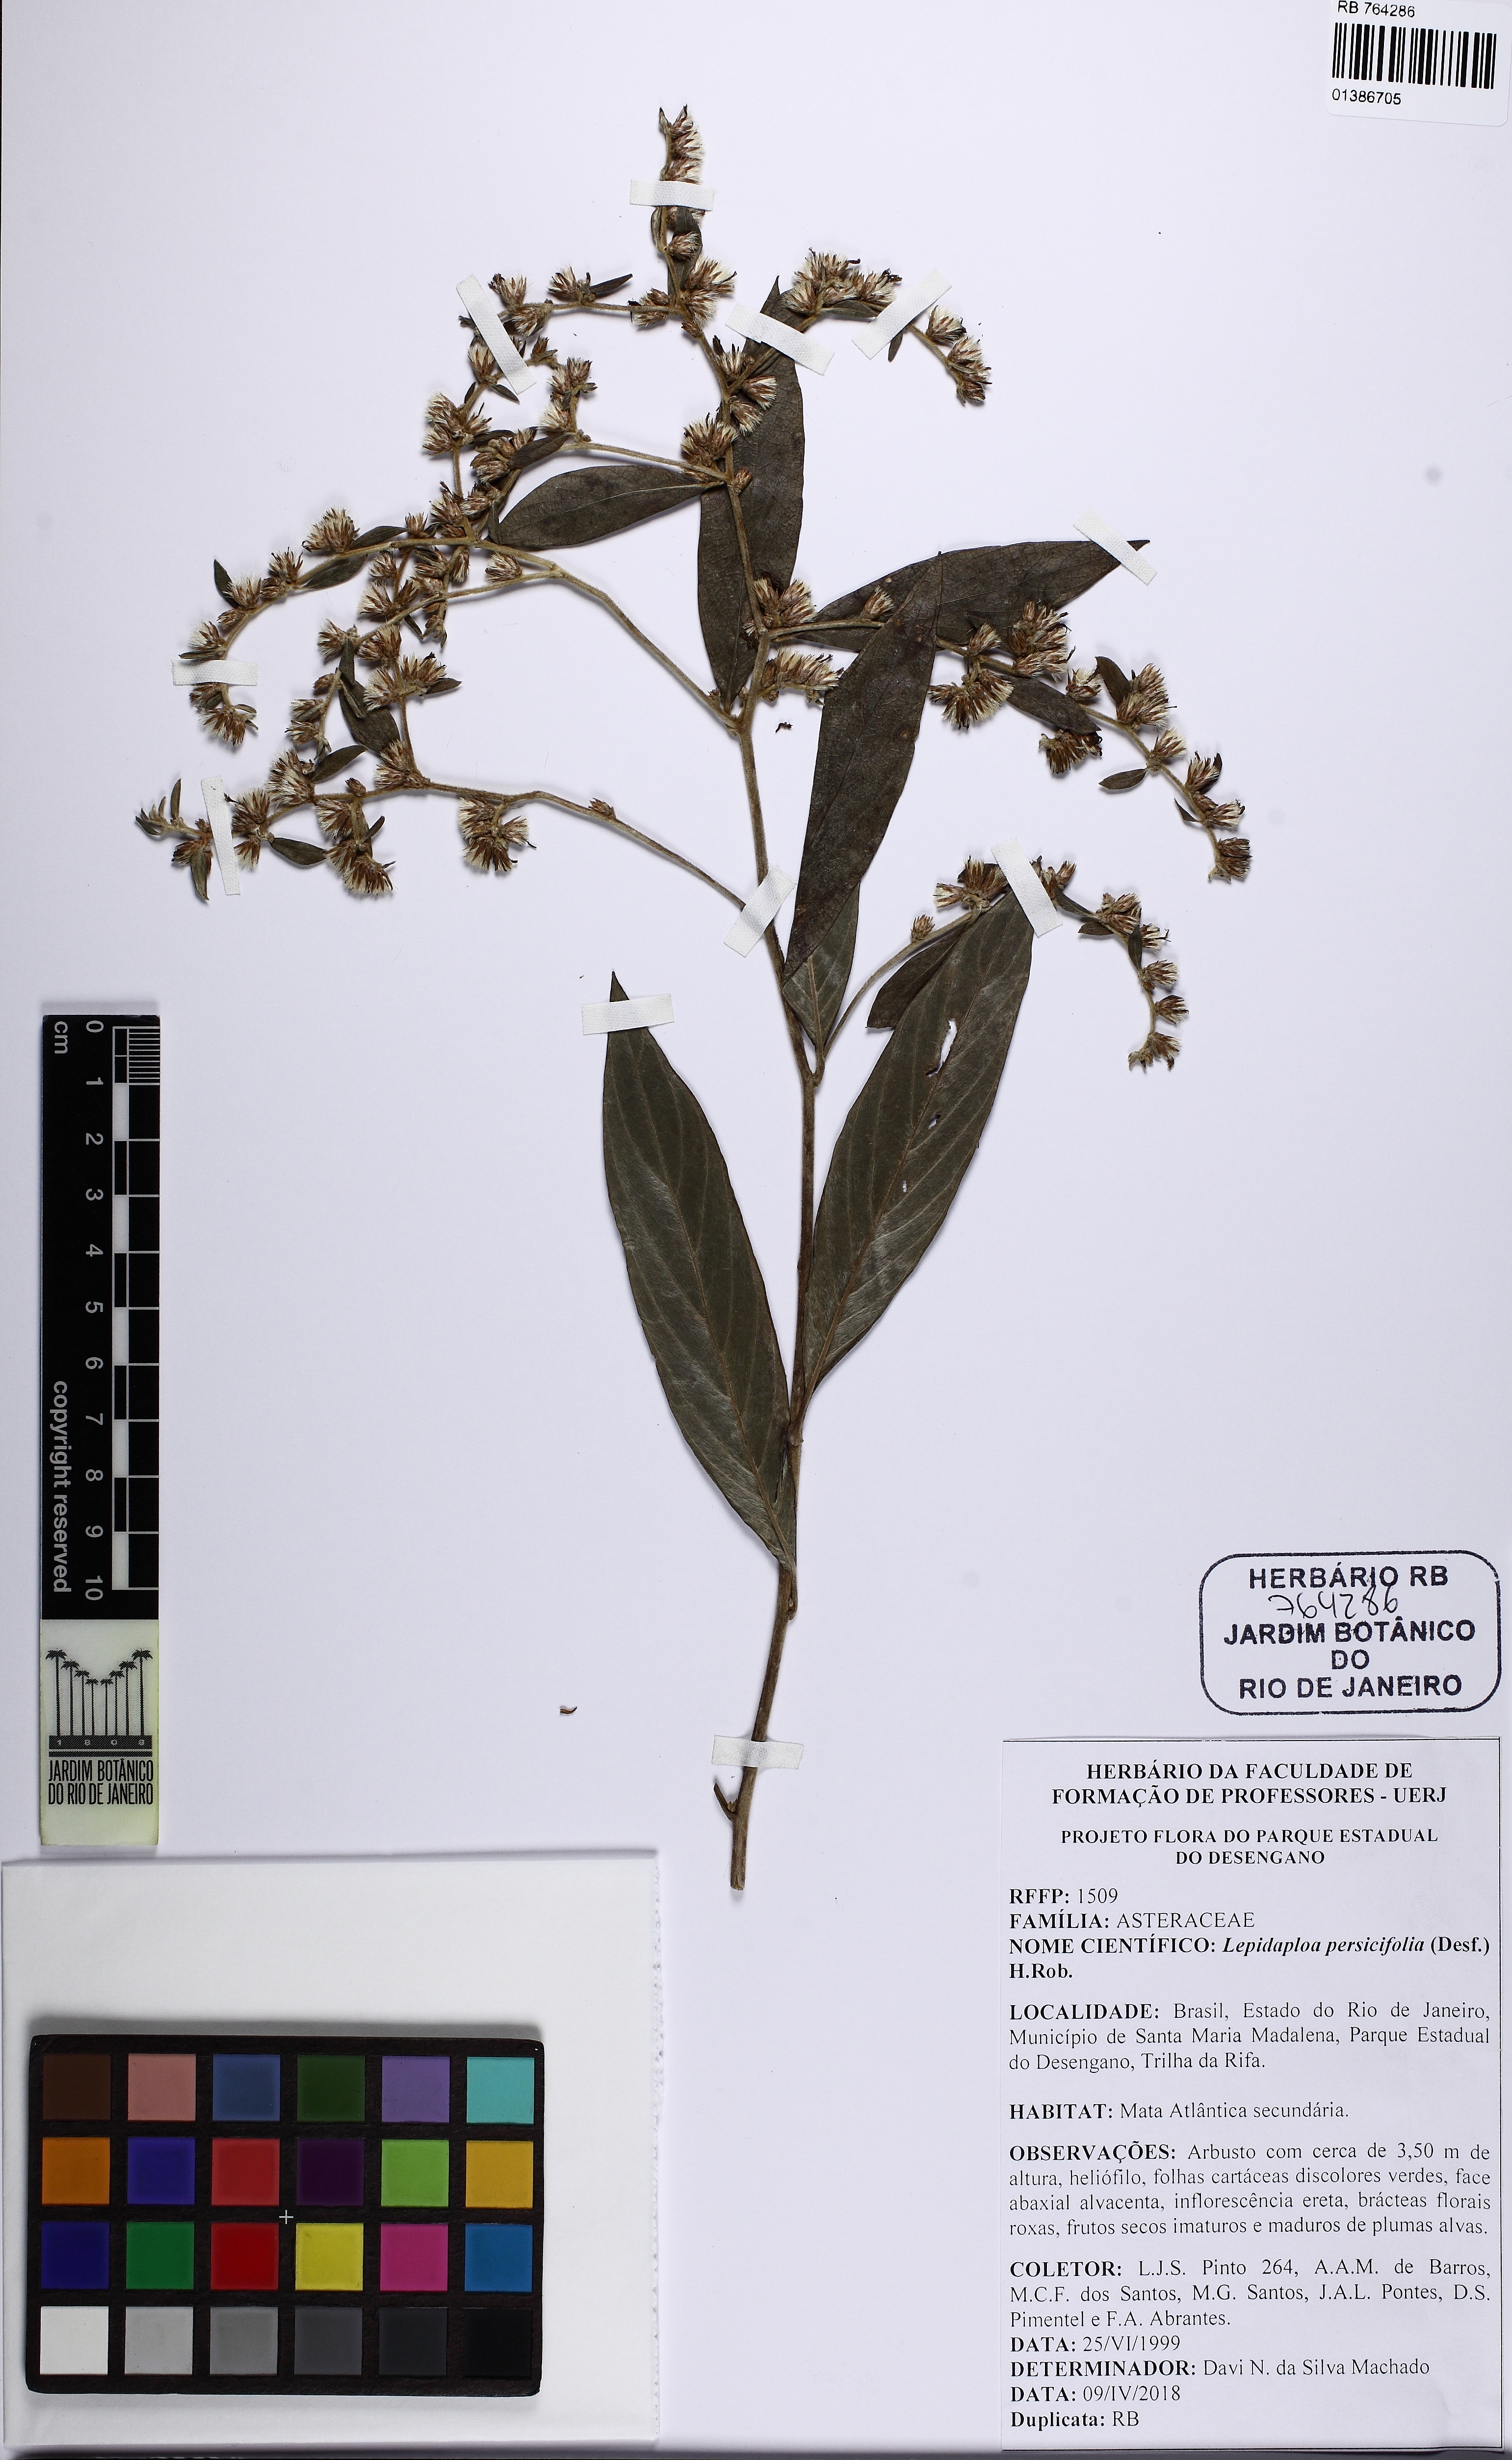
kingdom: Plantae
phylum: Tracheophyta
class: Magnoliopsida
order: Asterales
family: Asteraceae
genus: Lepidaploa
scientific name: Lepidaploa persicifolia
